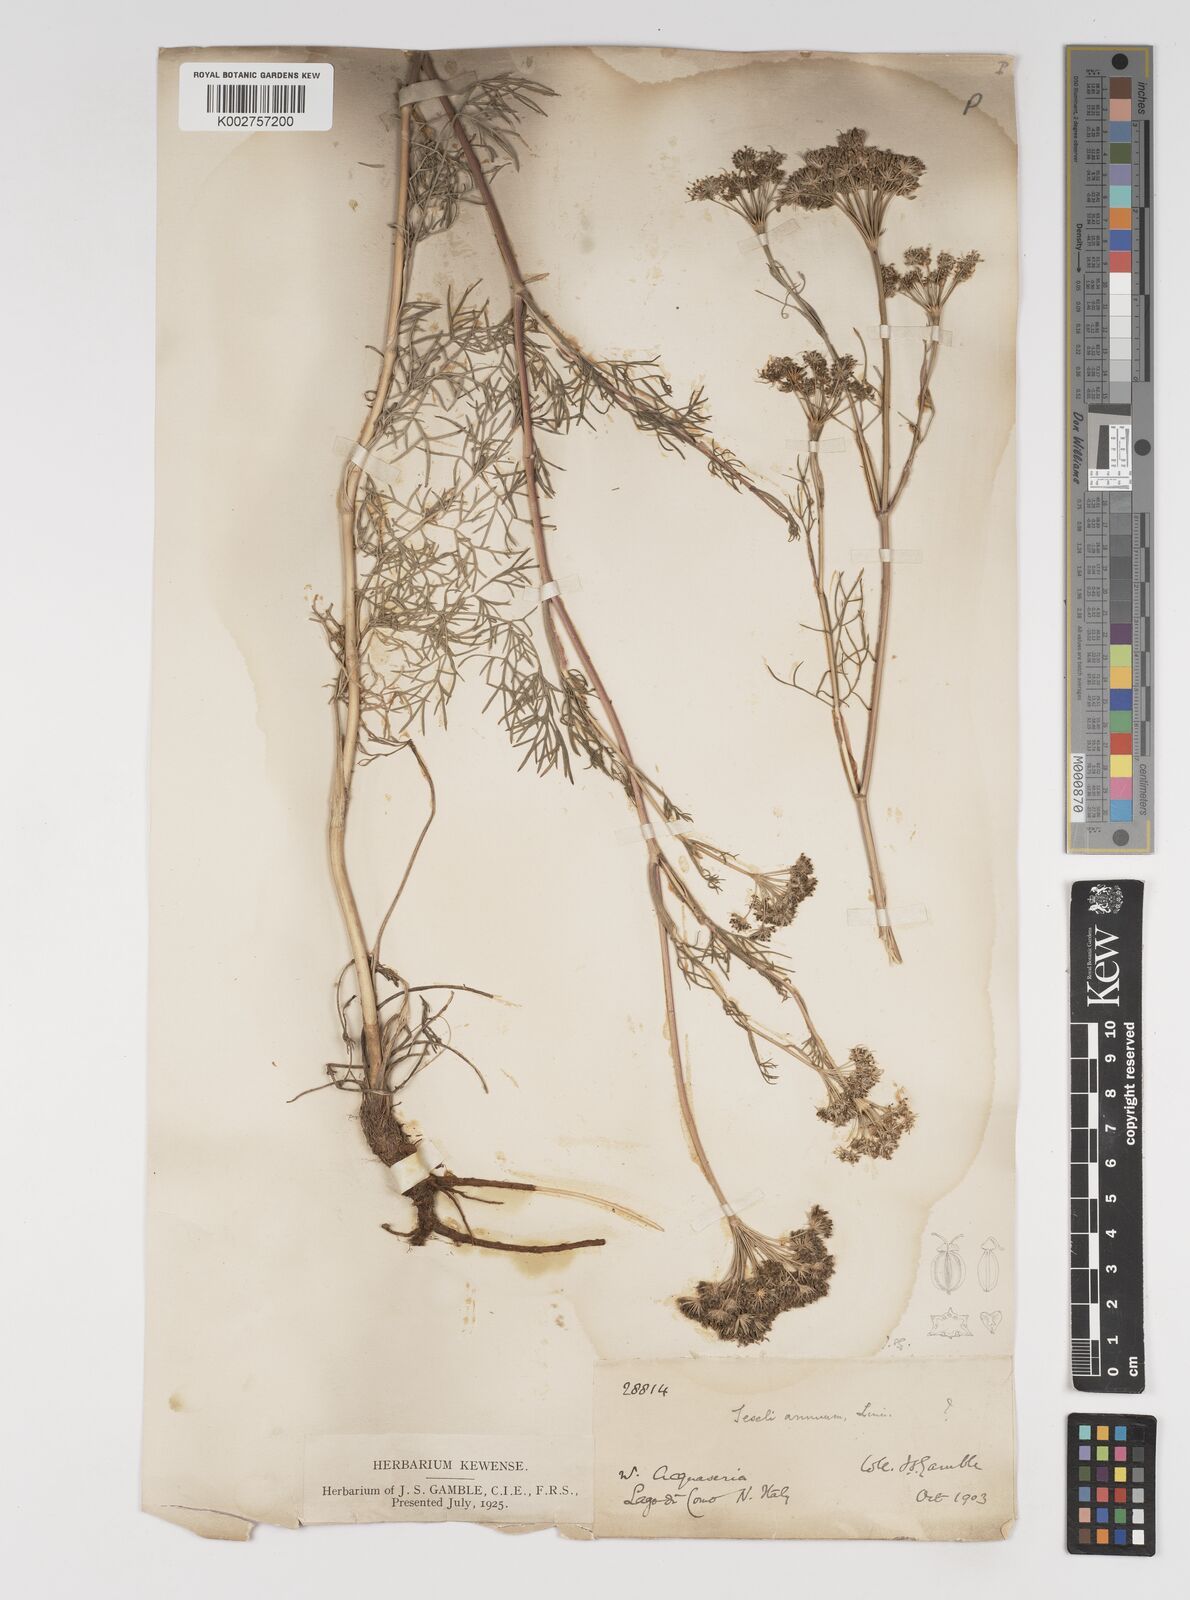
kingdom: Plantae
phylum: Tracheophyta
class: Magnoliopsida
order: Apiales
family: Apiaceae
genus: Seseli
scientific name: Seseli annuum
